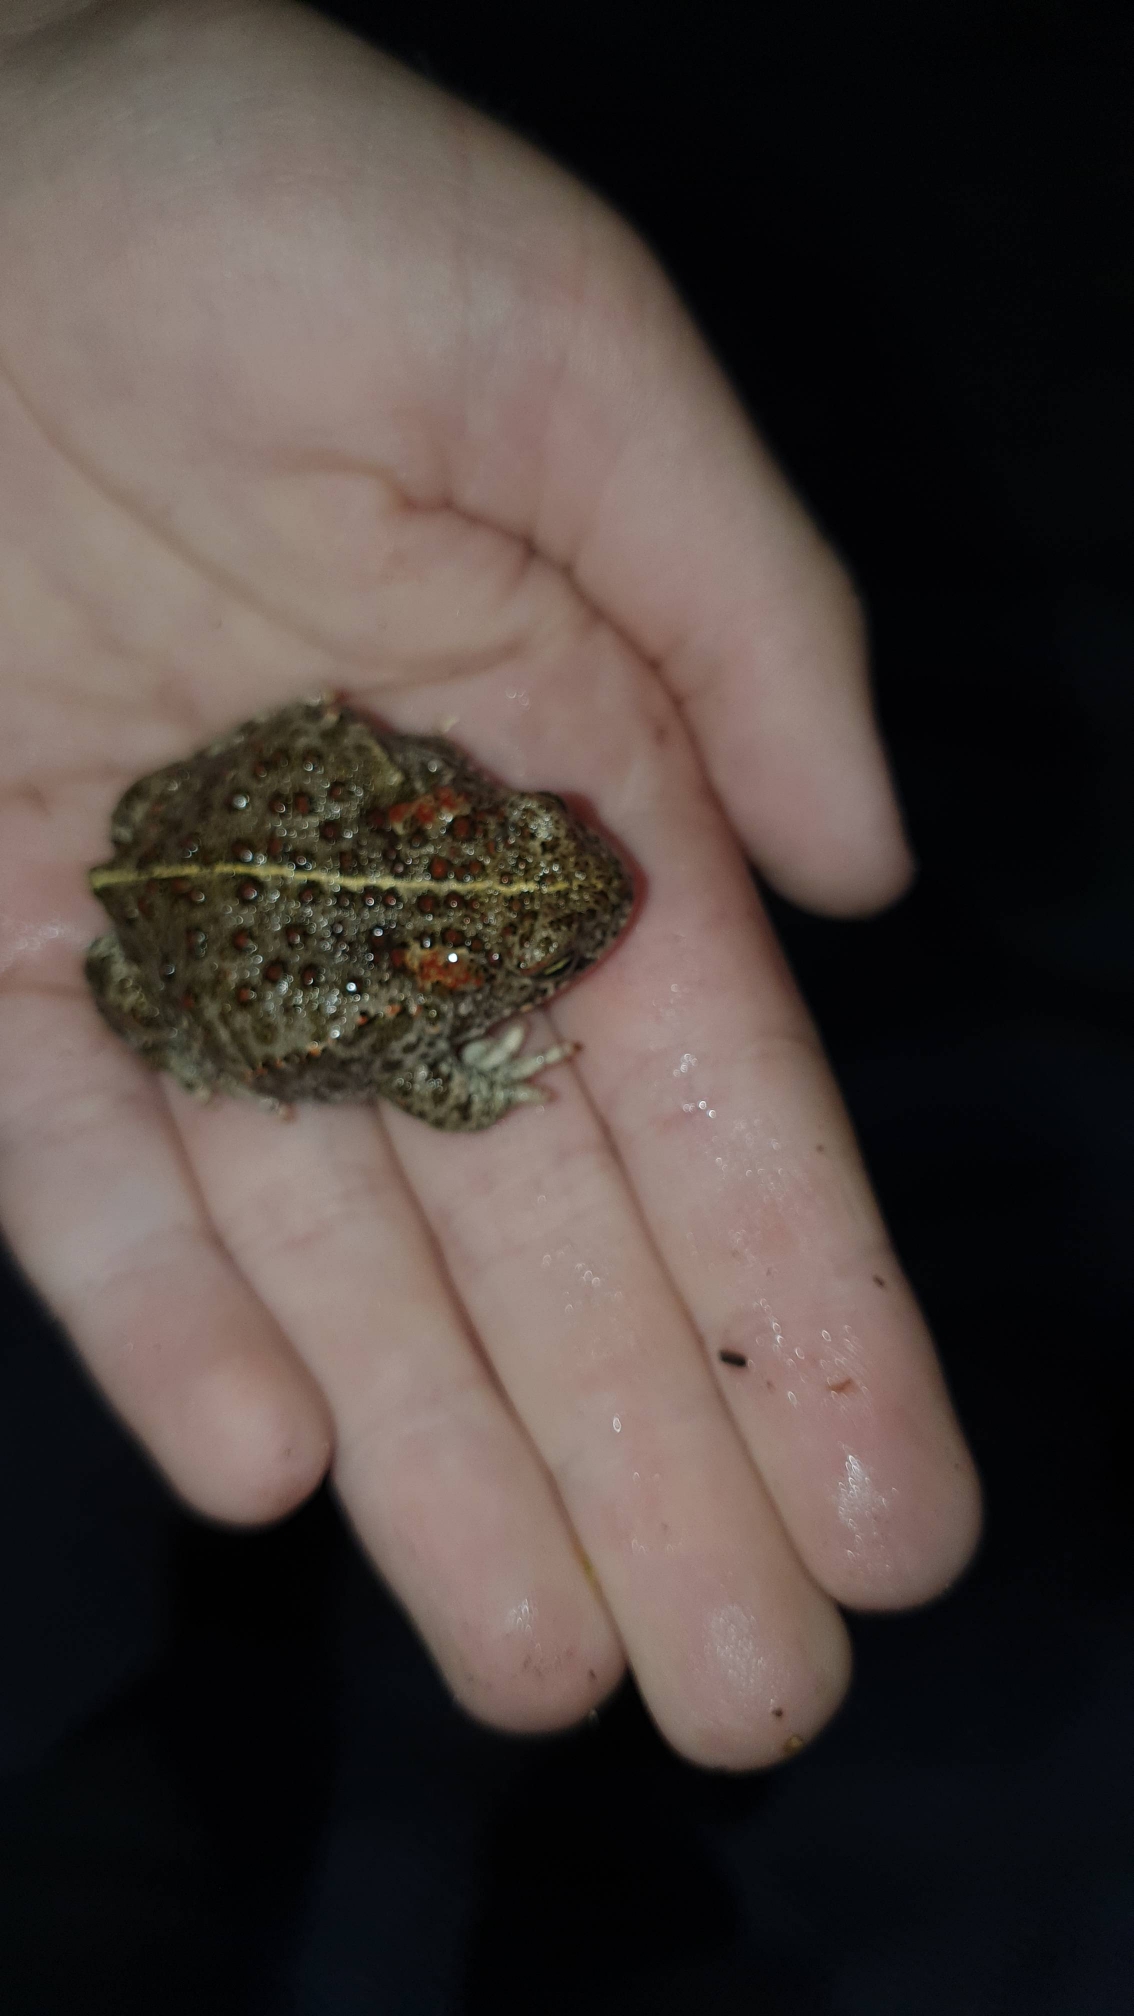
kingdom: Animalia
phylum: Chordata
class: Amphibia
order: Anura
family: Bufonidae
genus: Epidalea
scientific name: Epidalea calamita
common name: Strandtudse
